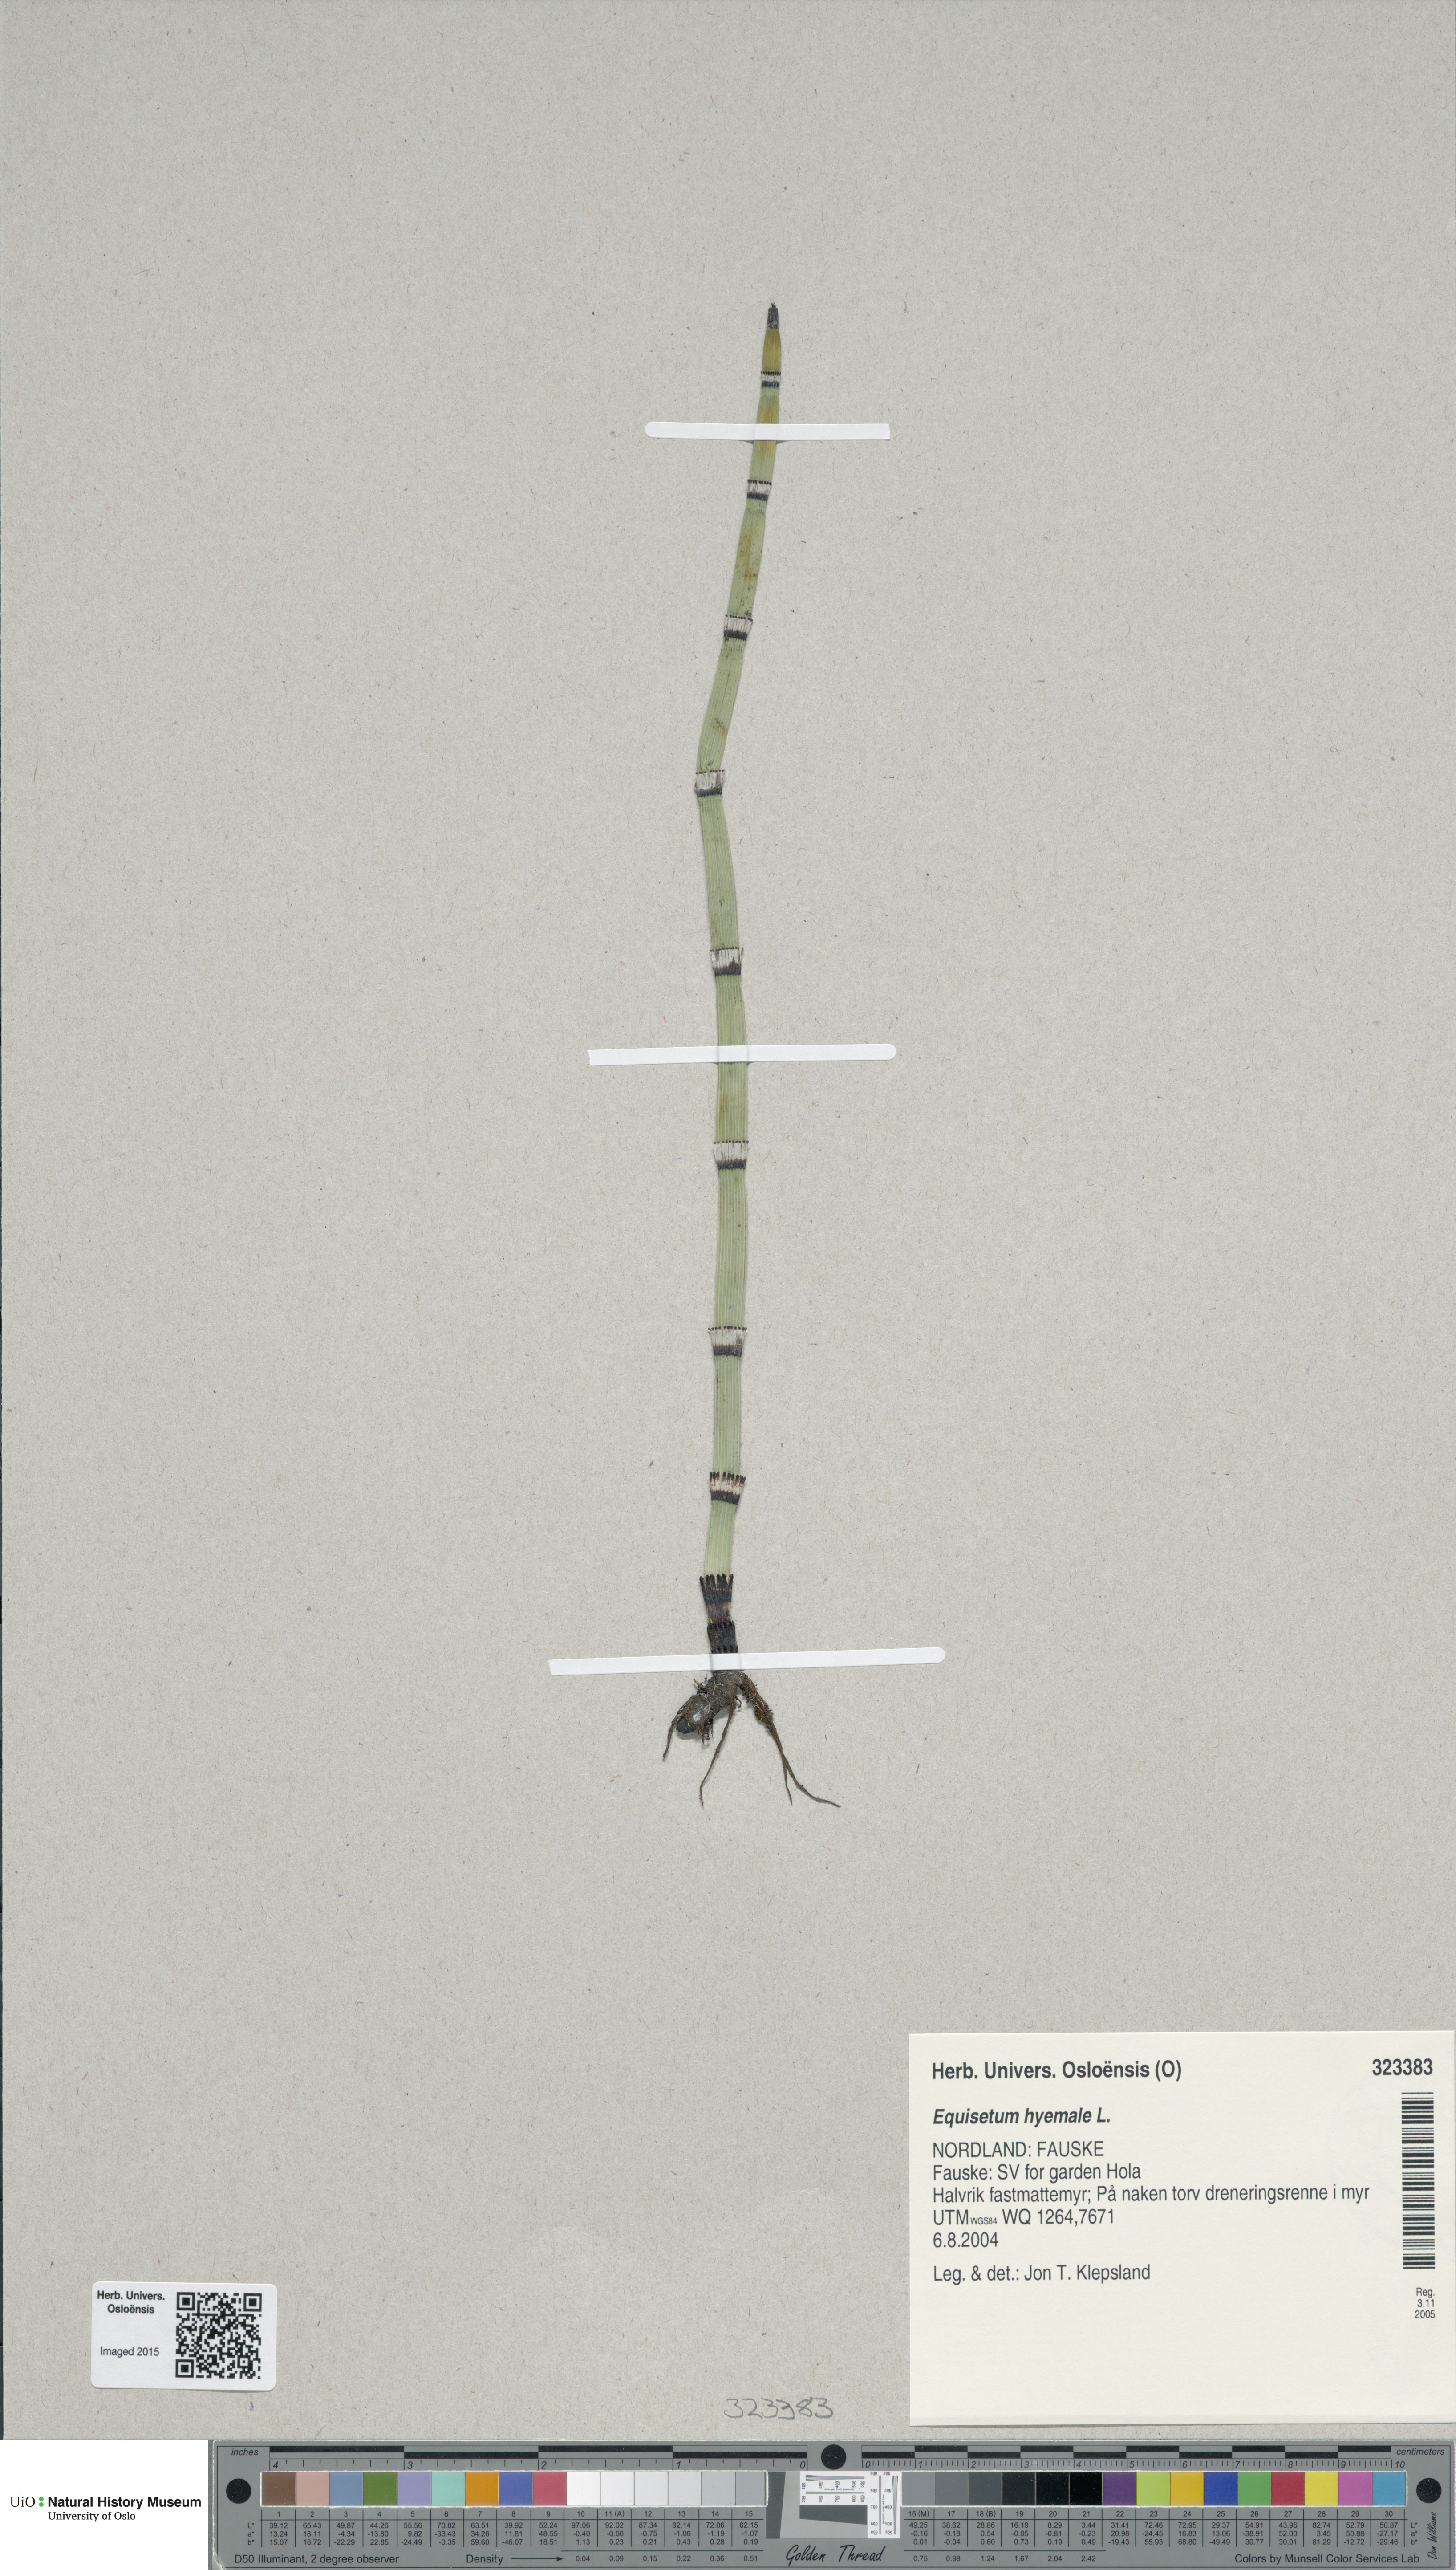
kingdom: Plantae
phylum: Tracheophyta
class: Polypodiopsida
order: Equisetales
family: Equisetaceae
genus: Equisetum
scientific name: Equisetum hyemale
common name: Rough horsetail
